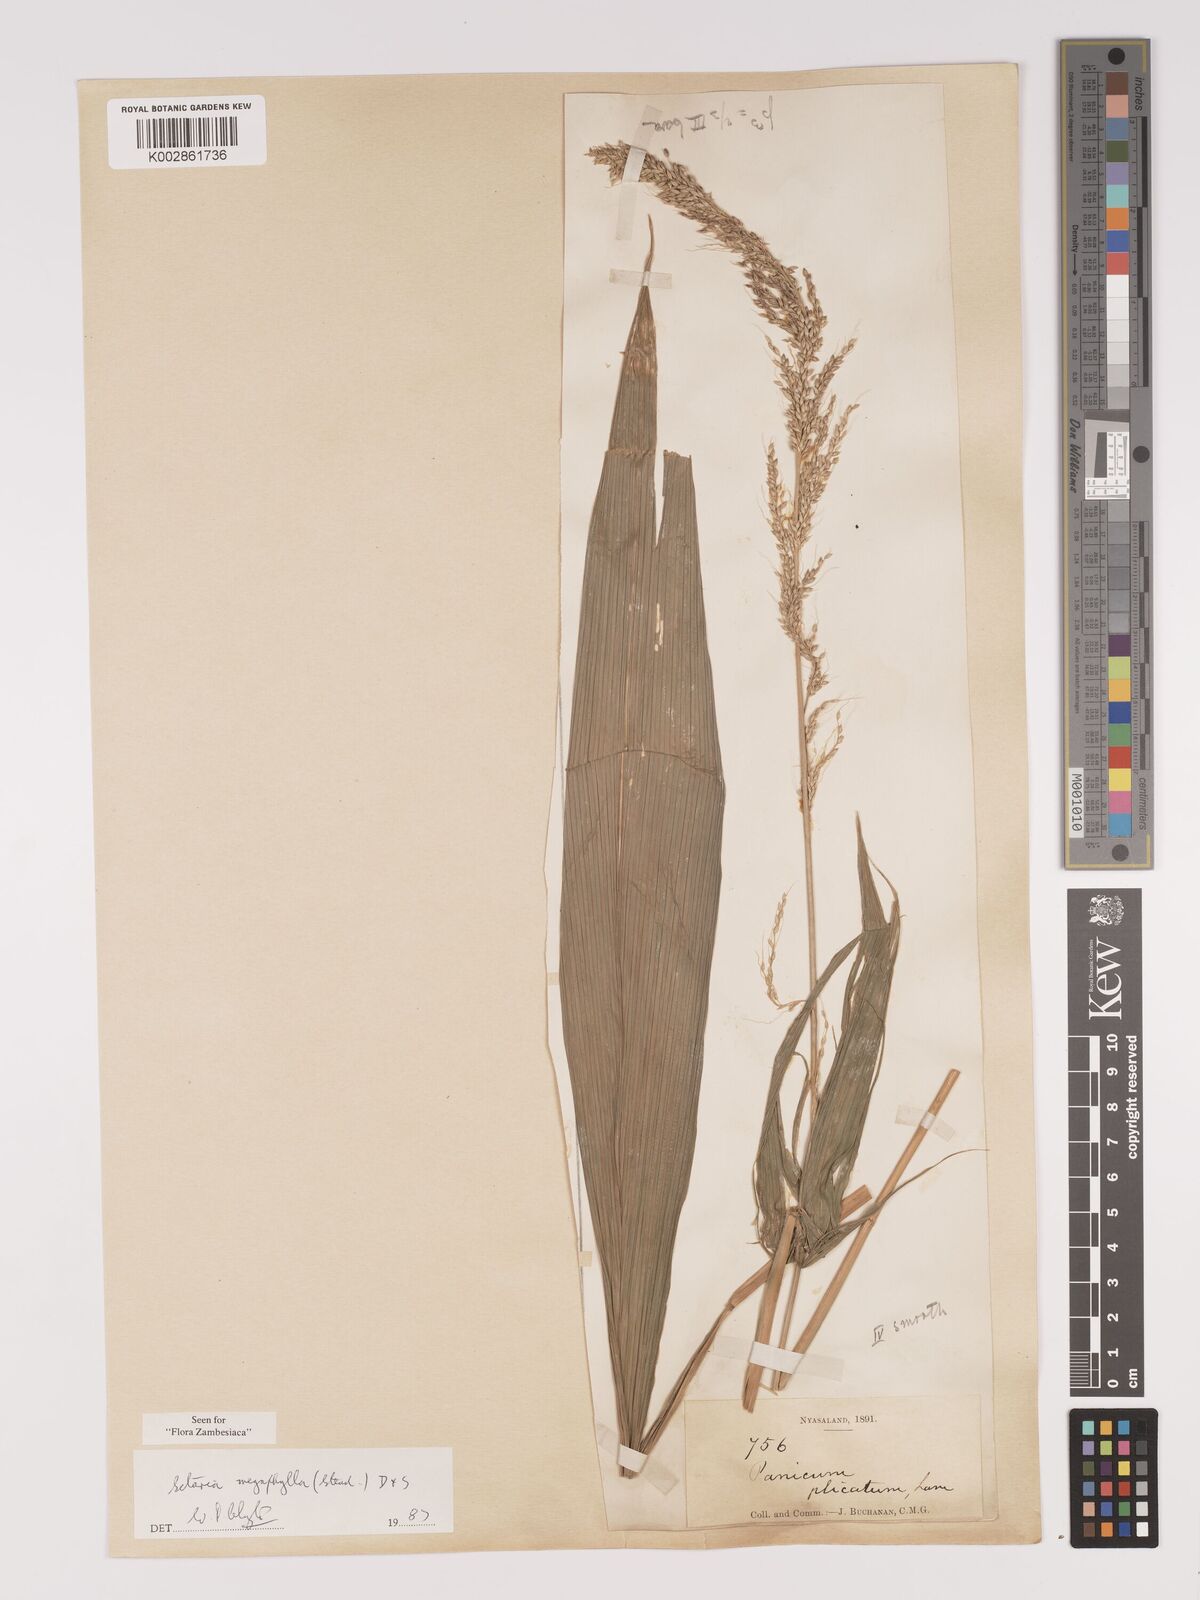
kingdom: Plantae
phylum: Tracheophyta
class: Liliopsida
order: Poales
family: Poaceae
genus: Setaria
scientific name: Setaria megaphylla
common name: Bigleaf bristlegrass
